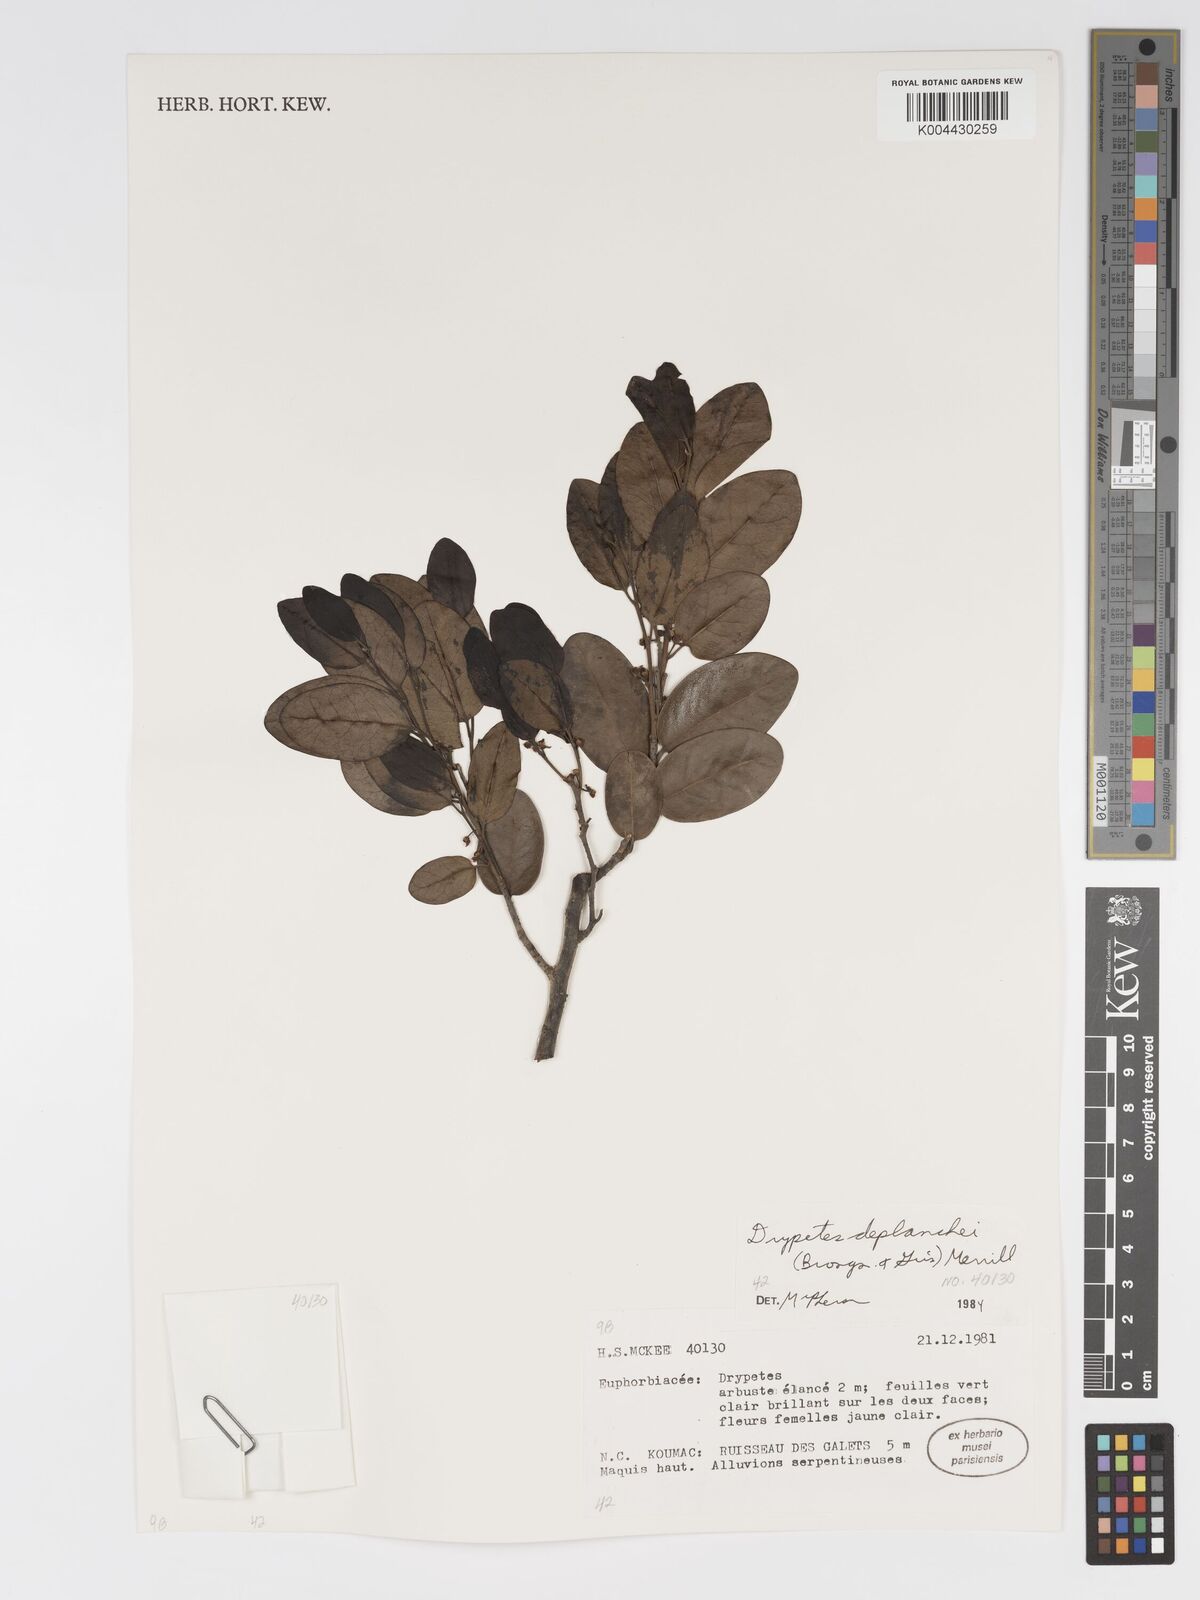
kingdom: Plantae
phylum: Tracheophyta
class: Magnoliopsida
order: Malpighiales
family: Putranjivaceae
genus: Drypetes
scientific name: Drypetes deplanchei
